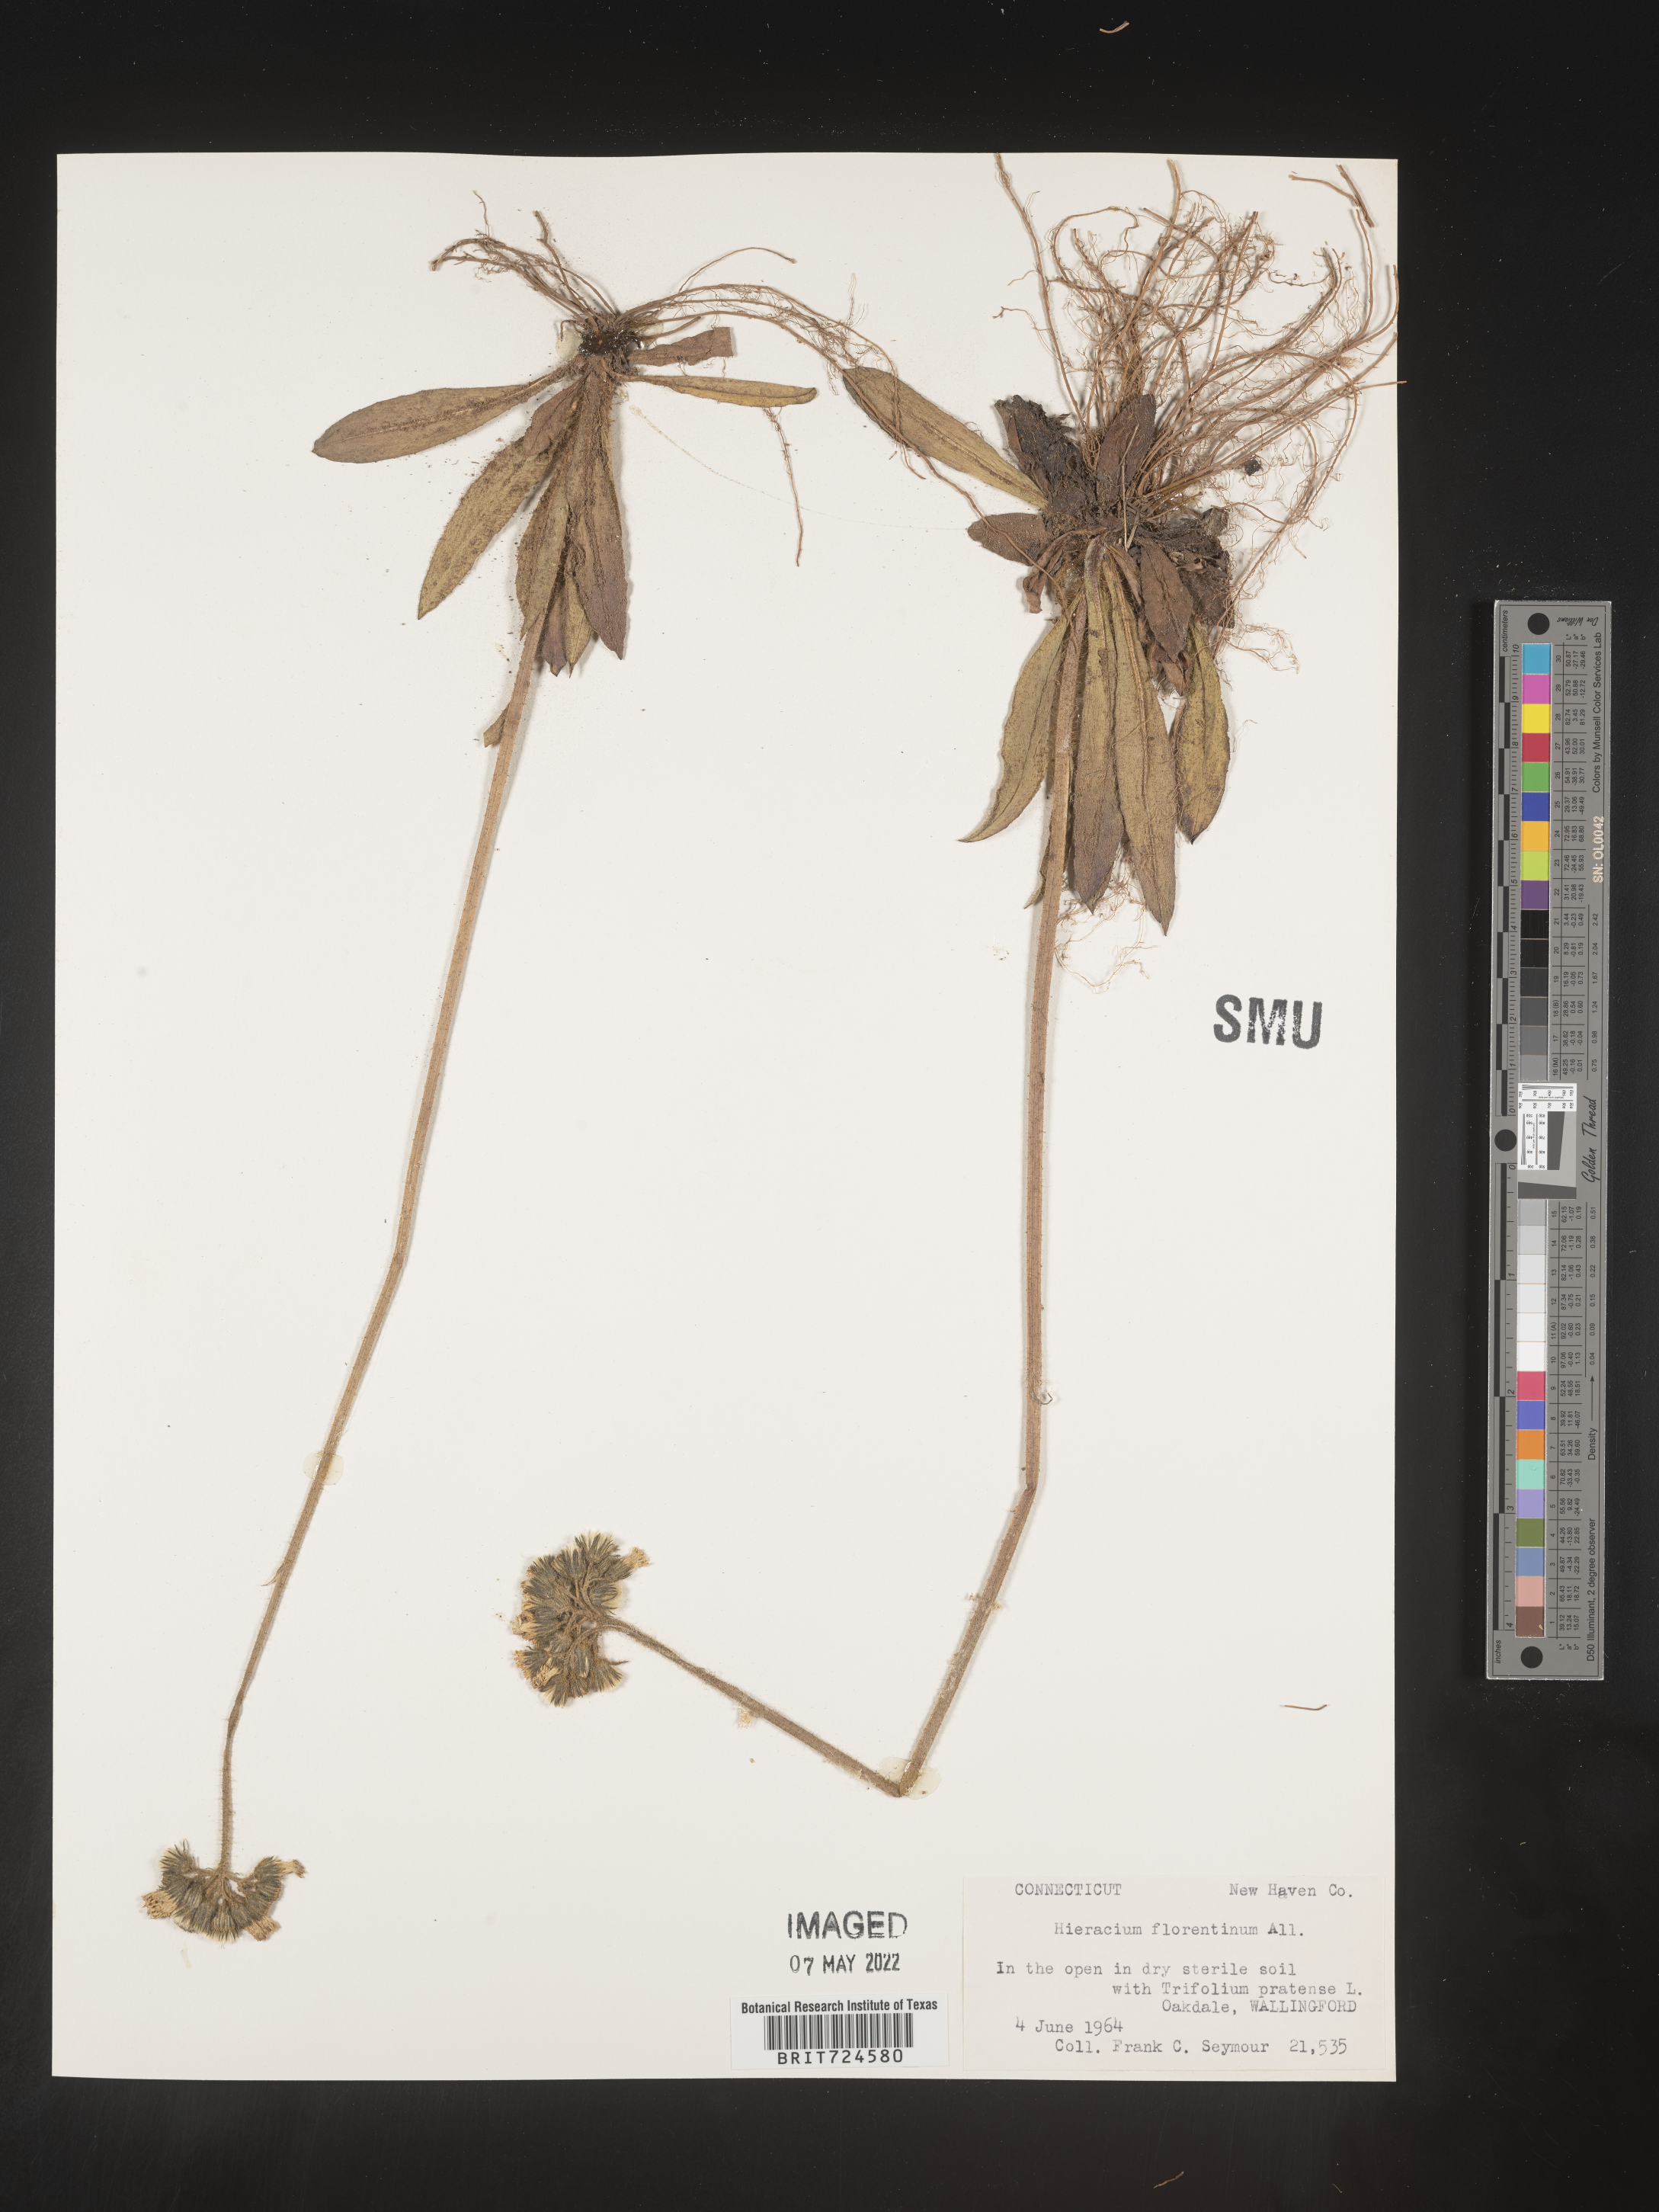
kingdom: Plantae
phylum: Tracheophyta
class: Magnoliopsida
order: Asterales
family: Asteraceae
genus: Pilosella
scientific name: Pilosella piloselloides
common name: Glaucous king-devil
